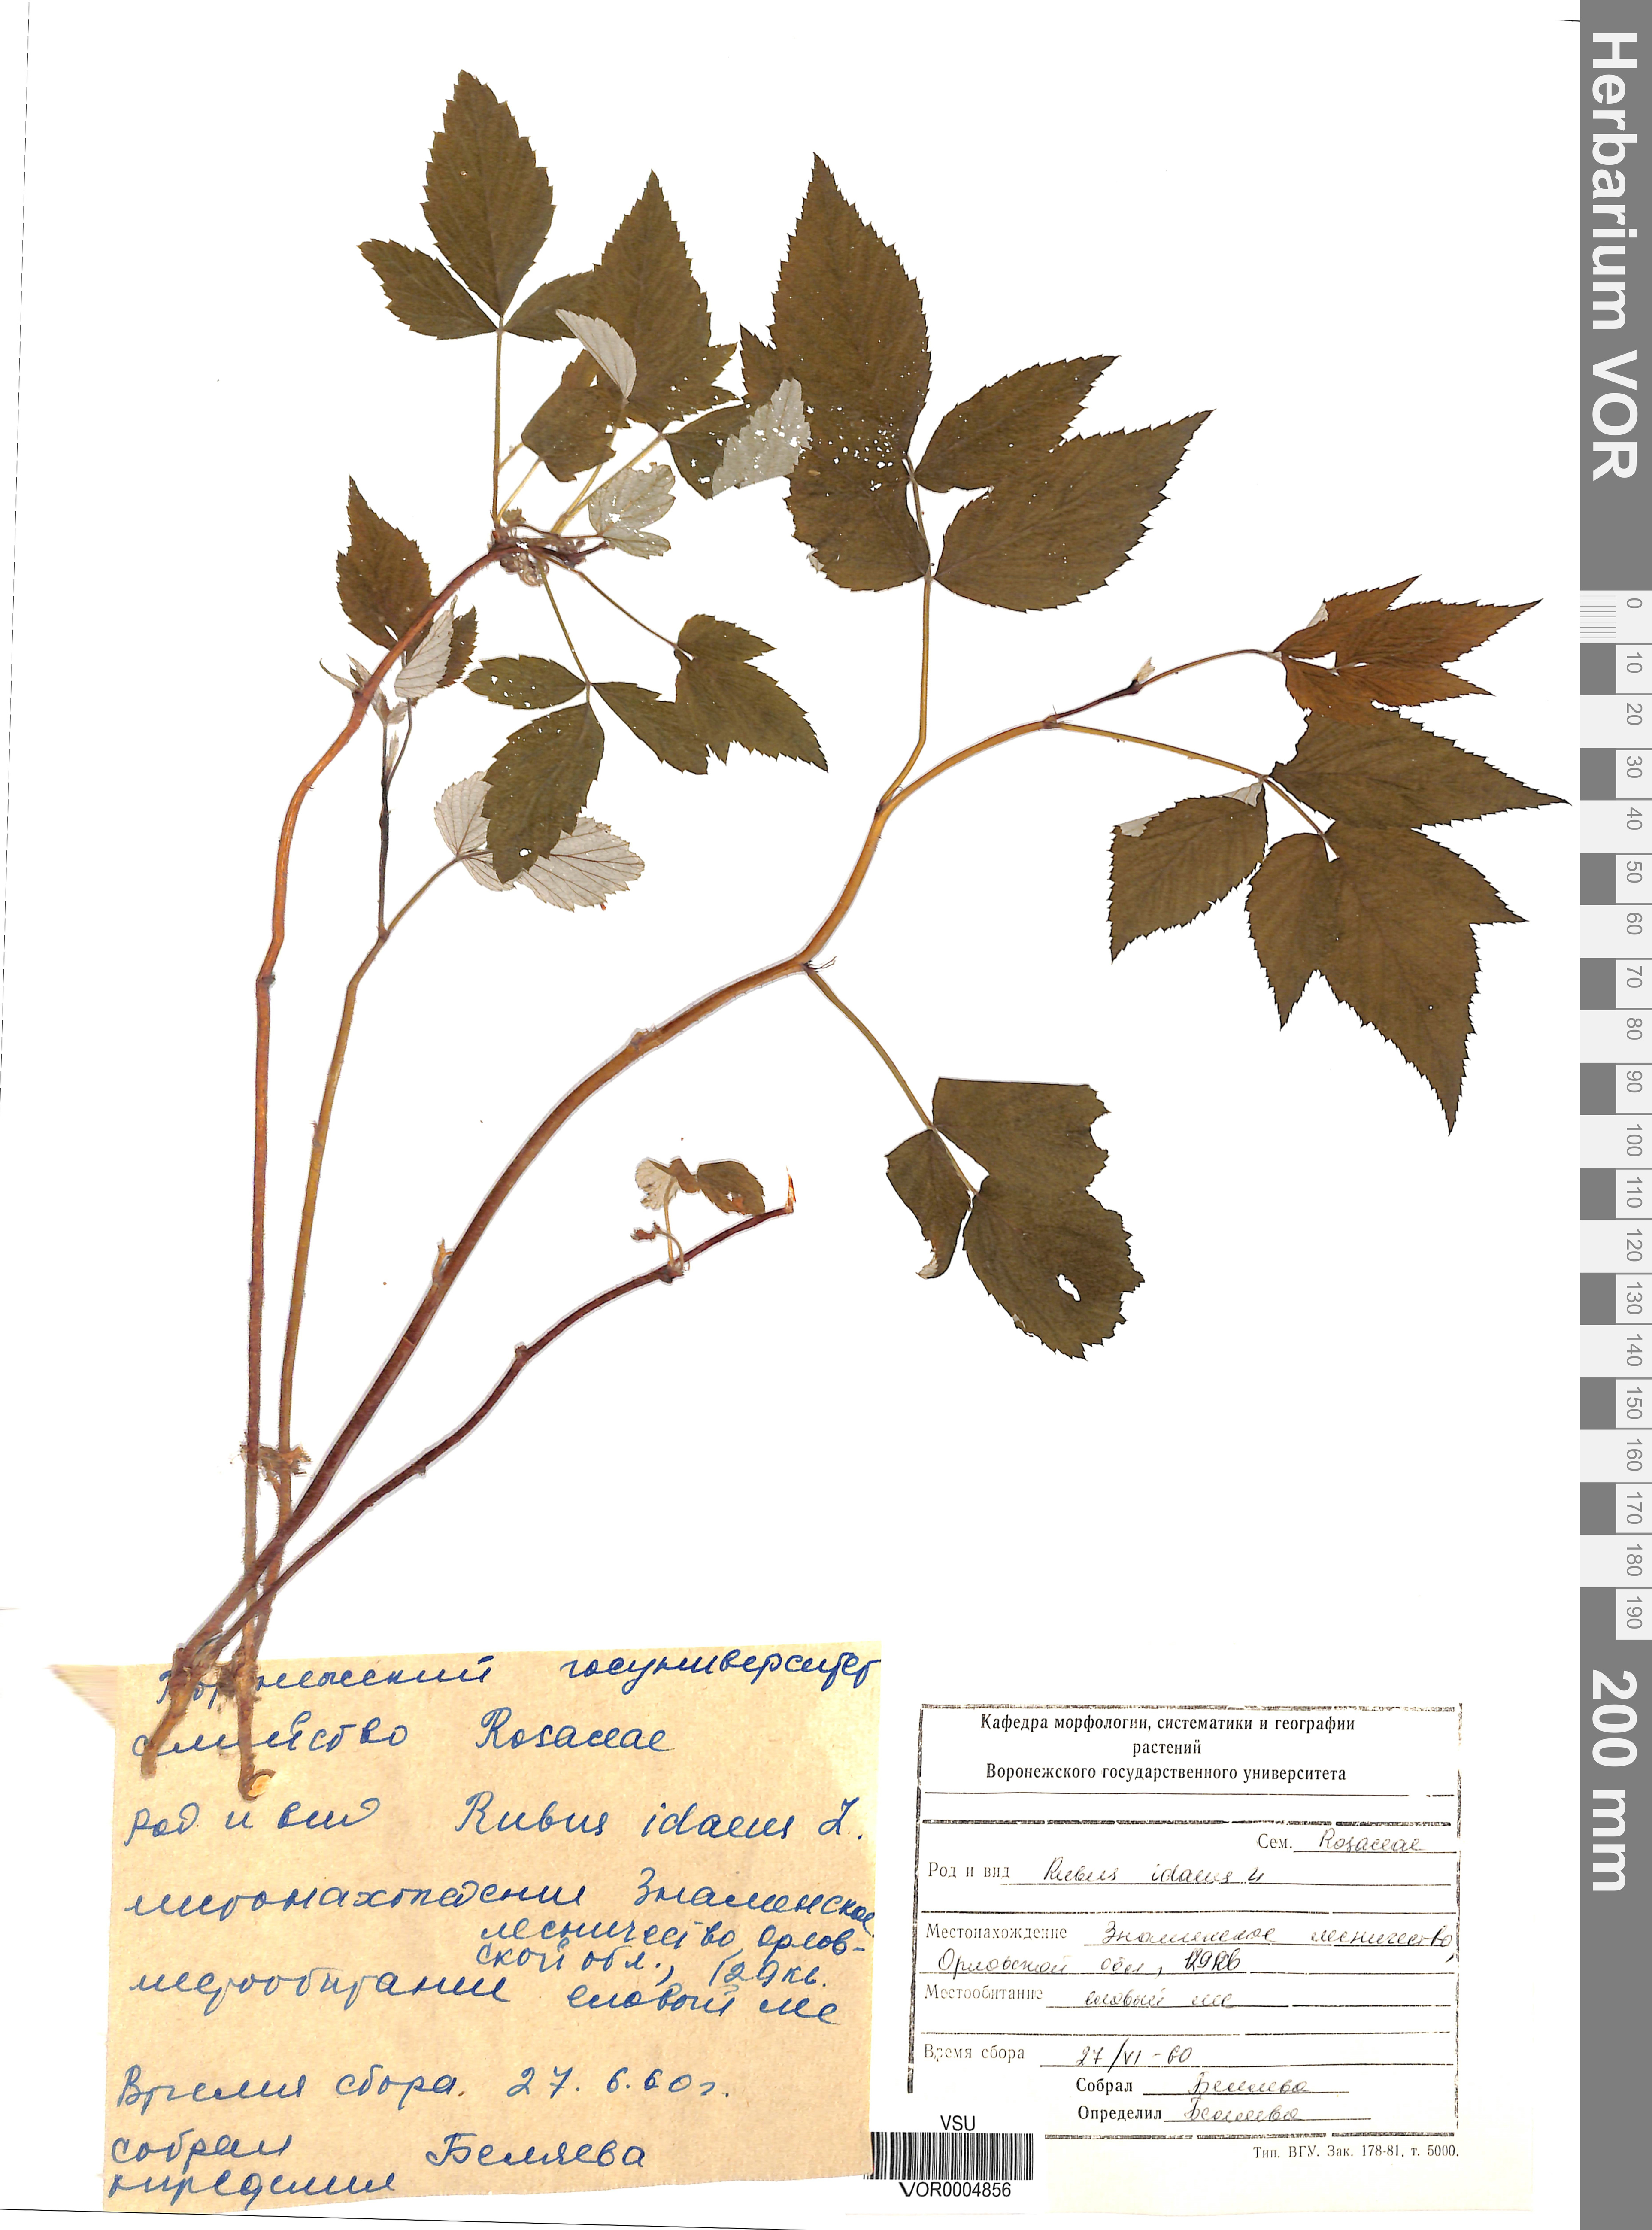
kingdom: Plantae
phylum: Tracheophyta
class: Magnoliopsida
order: Rosales
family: Rosaceae
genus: Rubus
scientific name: Rubus idaeus
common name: Raspberry
